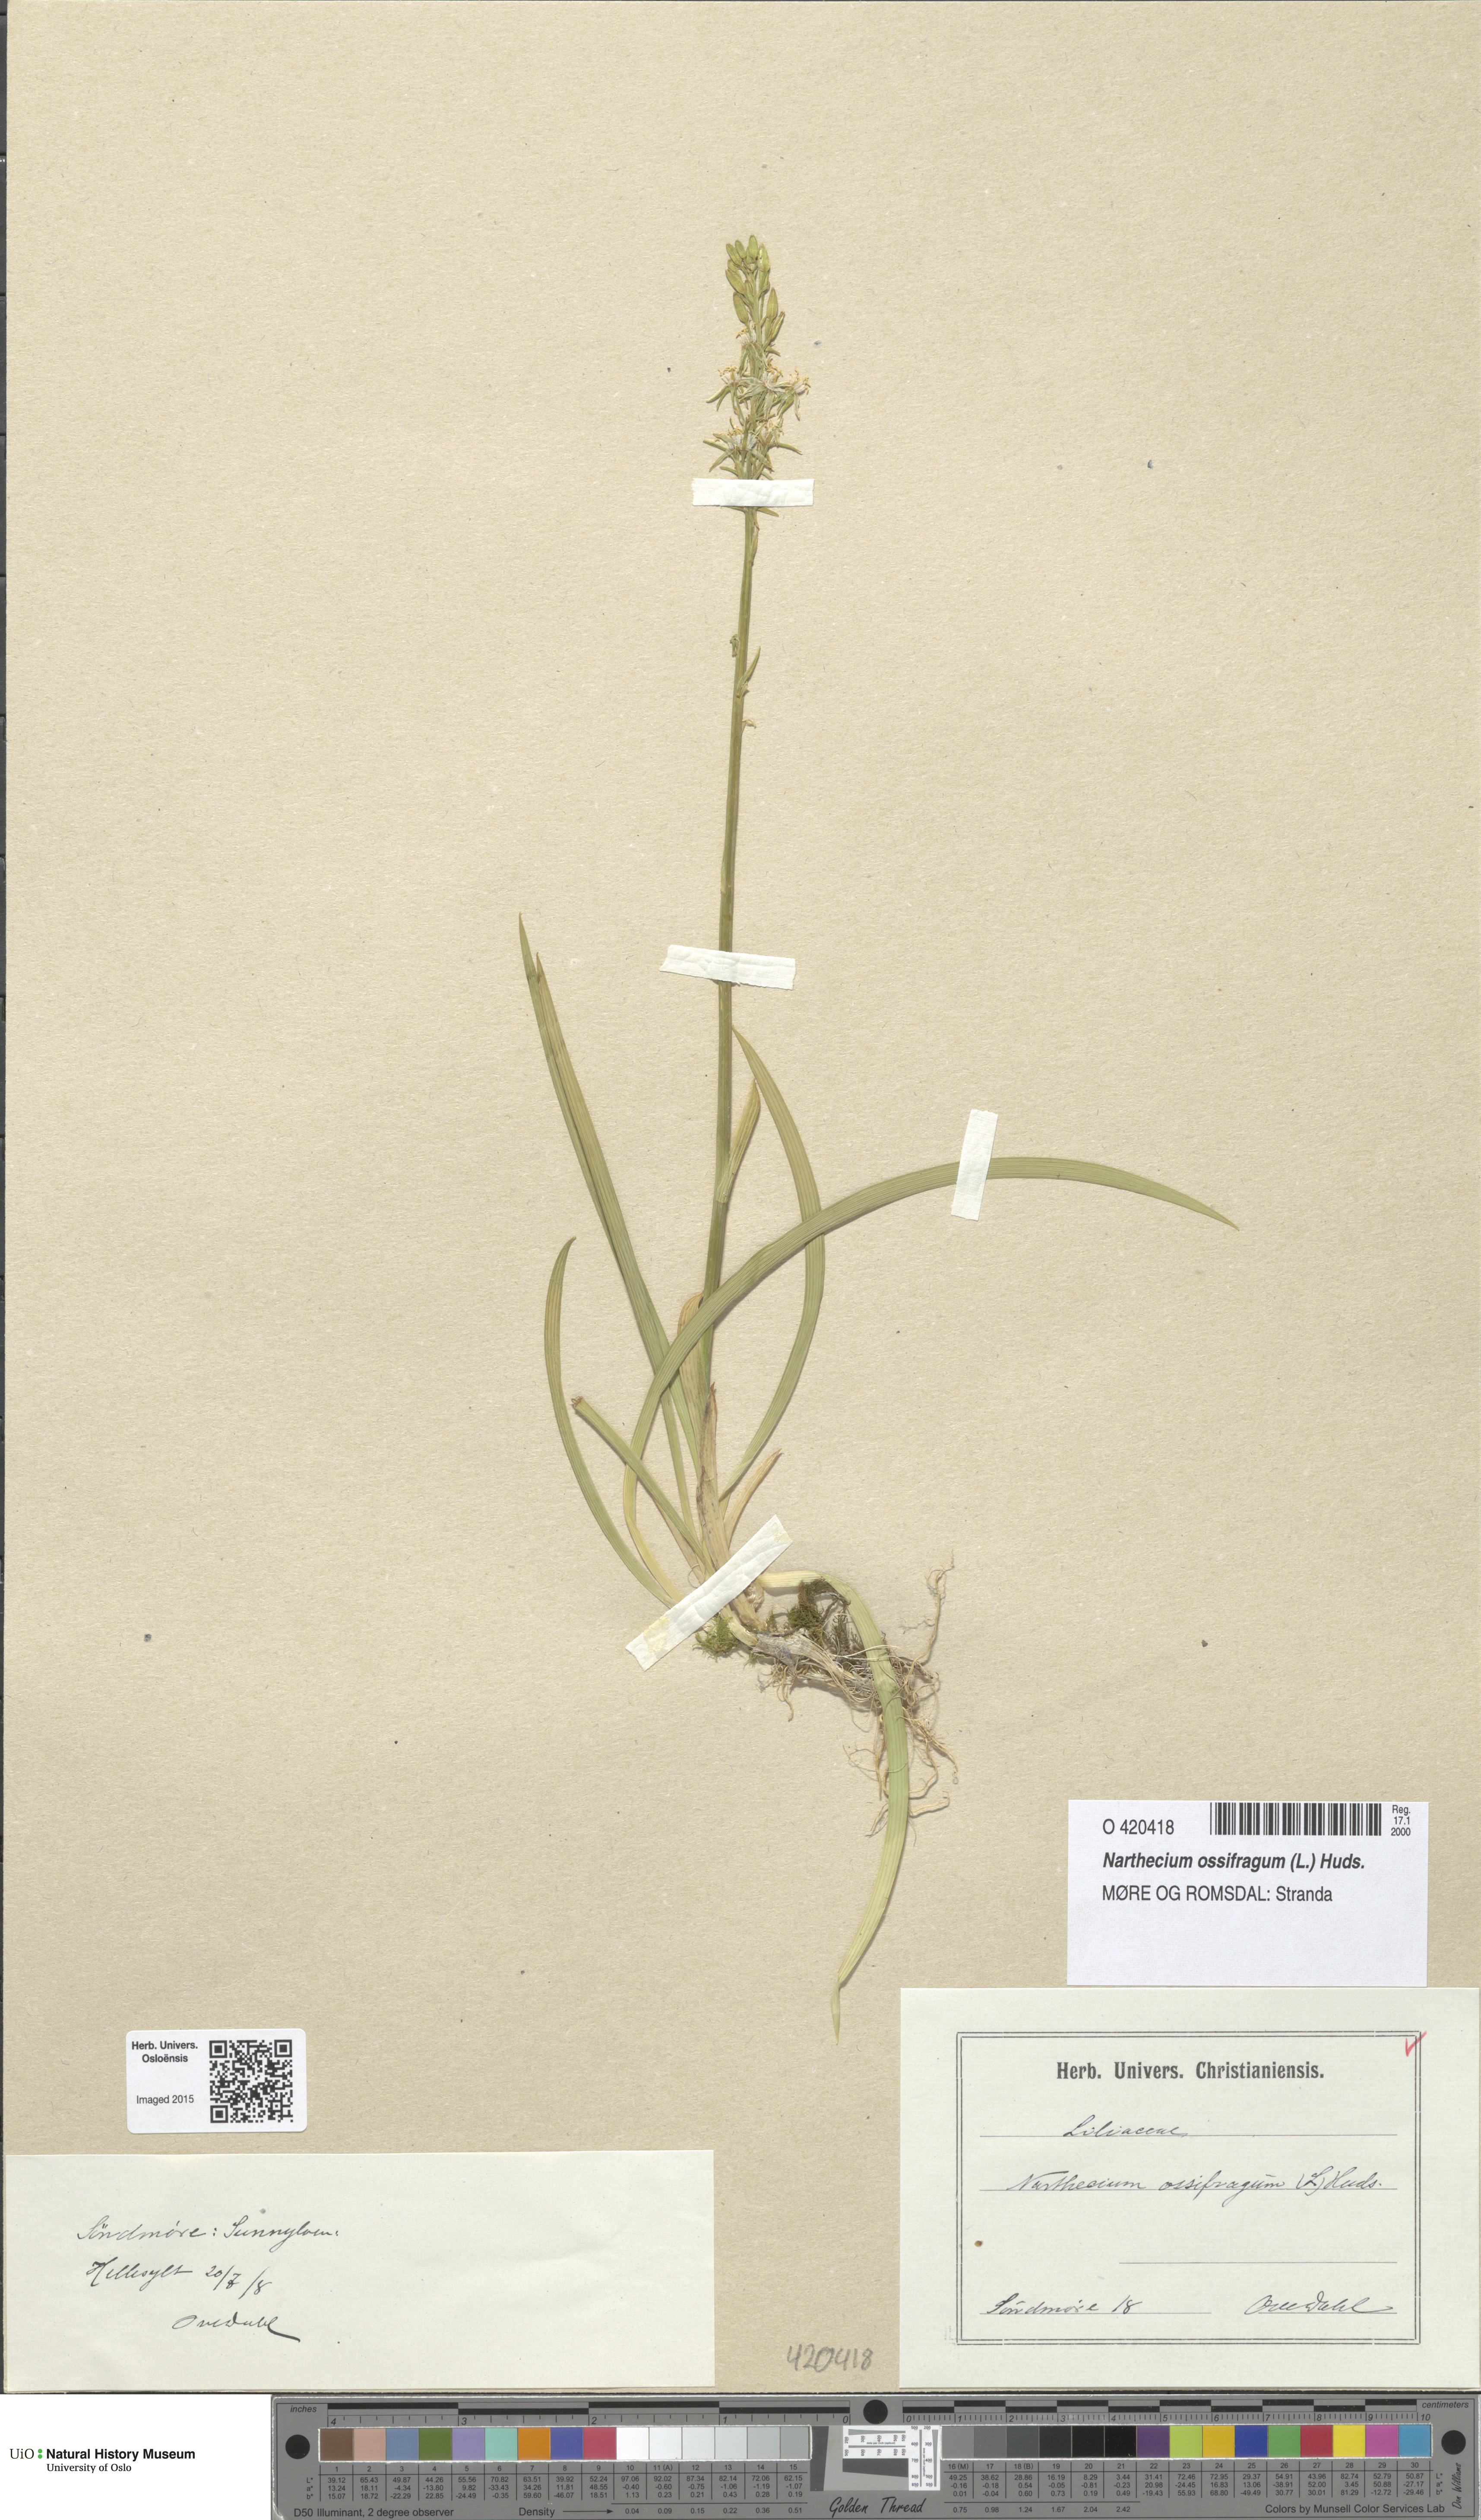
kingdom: Plantae
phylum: Tracheophyta
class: Liliopsida
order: Dioscoreales
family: Nartheciaceae
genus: Narthecium
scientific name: Narthecium ossifragum
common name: Bog asphodel
